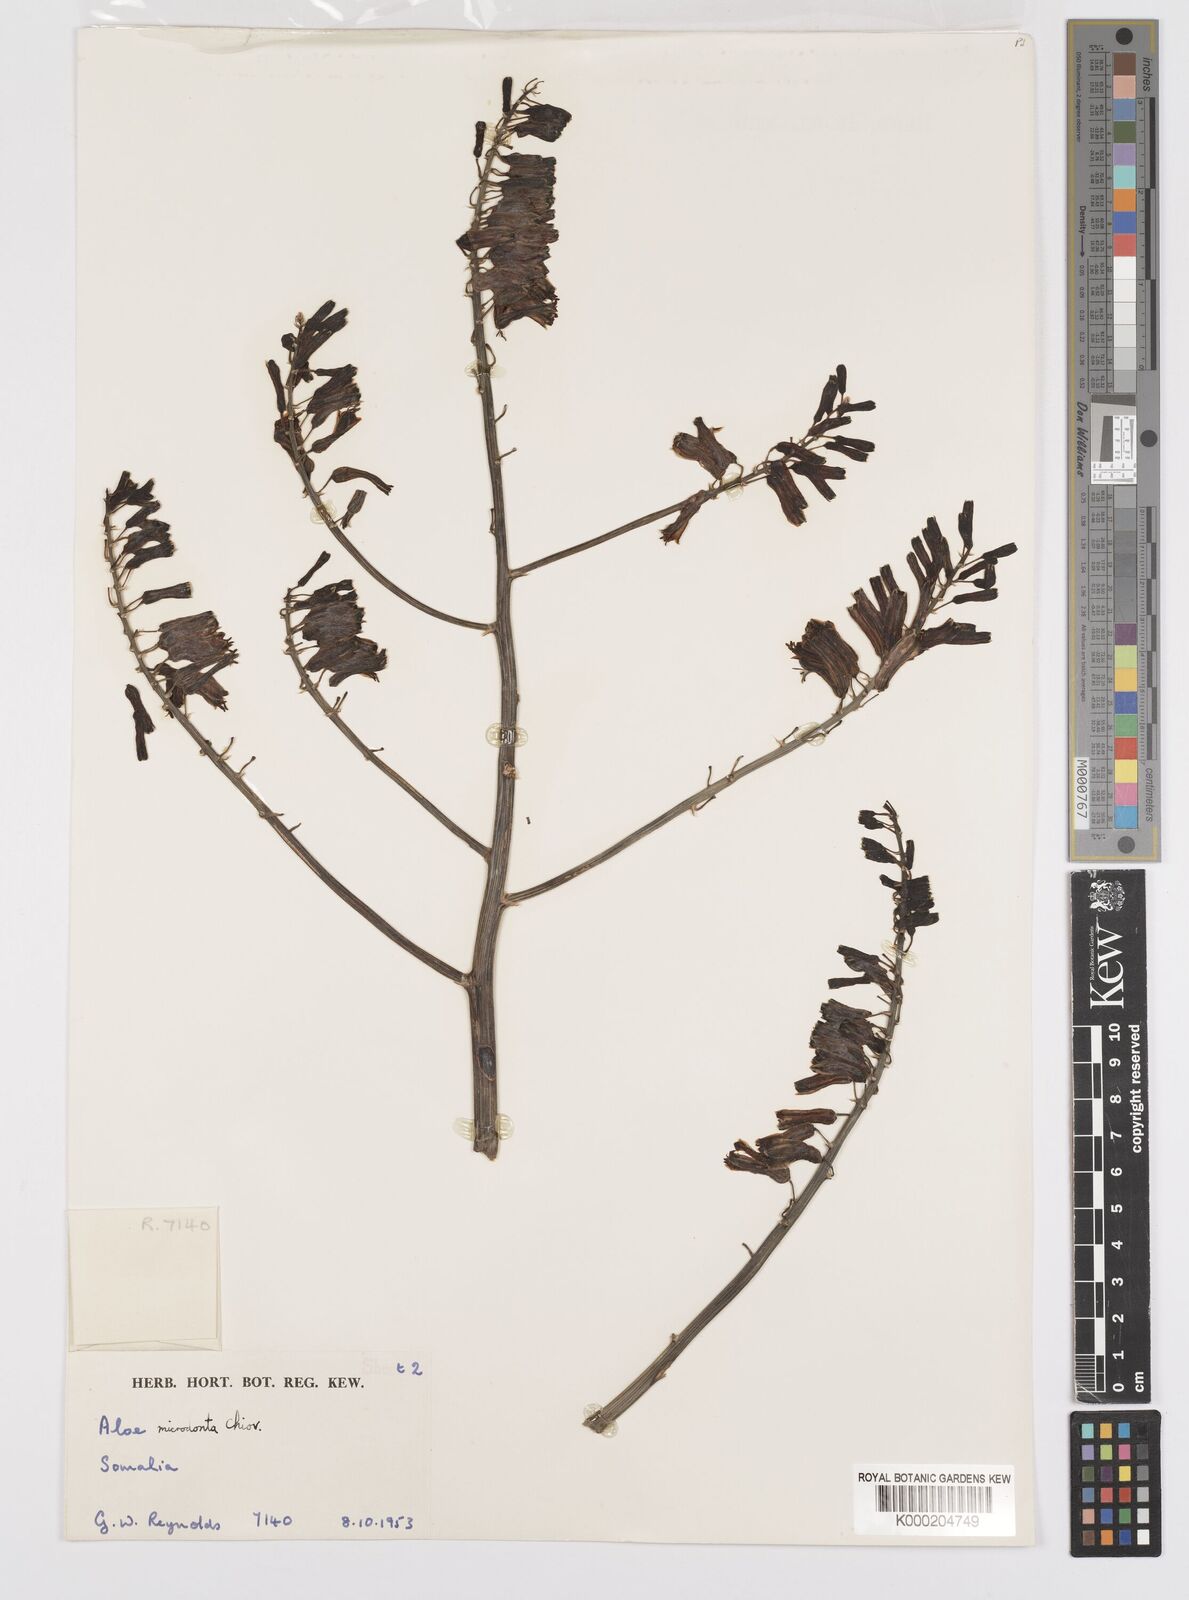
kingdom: Plantae
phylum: Tracheophyta
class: Liliopsida
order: Asparagales
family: Asphodelaceae
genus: Aloe
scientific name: Aloe microdonta
